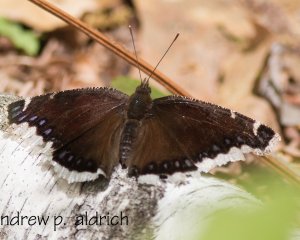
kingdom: Animalia
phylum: Arthropoda
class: Insecta
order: Lepidoptera
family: Nymphalidae
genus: Nymphalis
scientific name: Nymphalis antiopa
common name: Mourning Cloak
